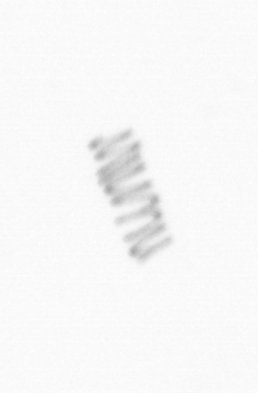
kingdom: Chromista
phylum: Ochrophyta
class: Bacillariophyceae
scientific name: Bacillariophyceae
